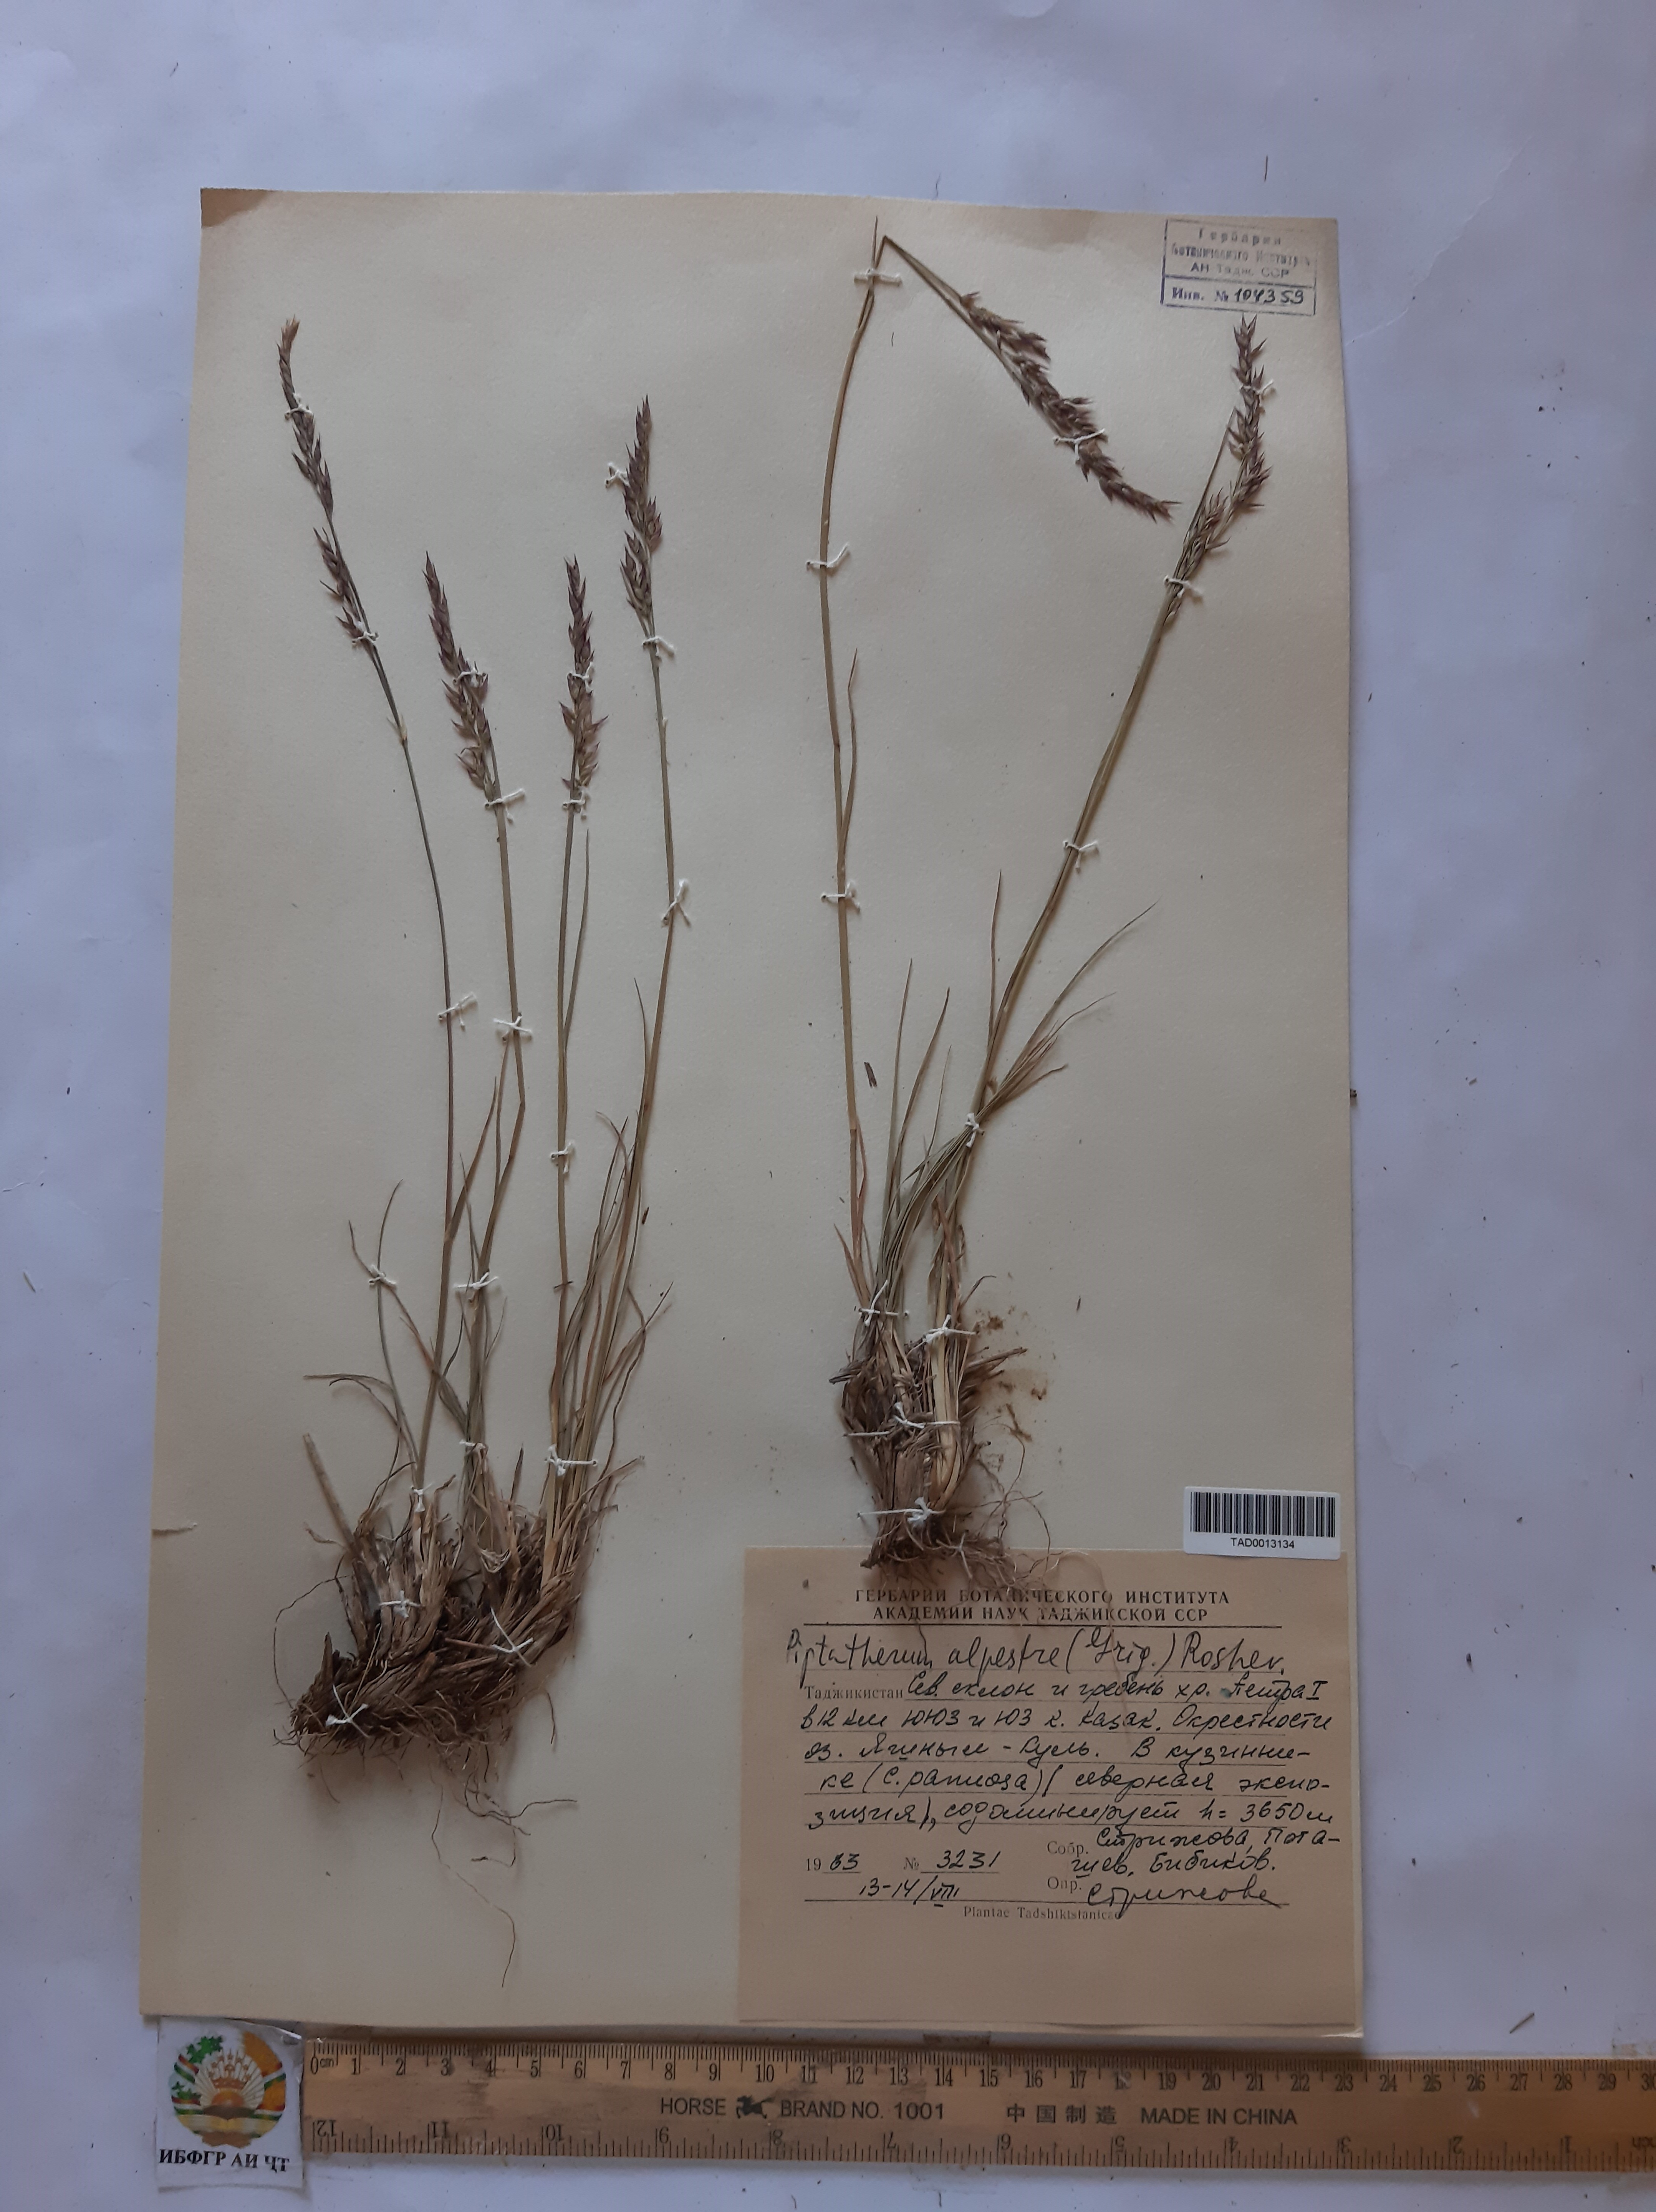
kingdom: Plantae
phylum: Tracheophyta
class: Liliopsida
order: Poales
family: Poaceae
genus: Piptatherum
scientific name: Piptatherum alpestre
